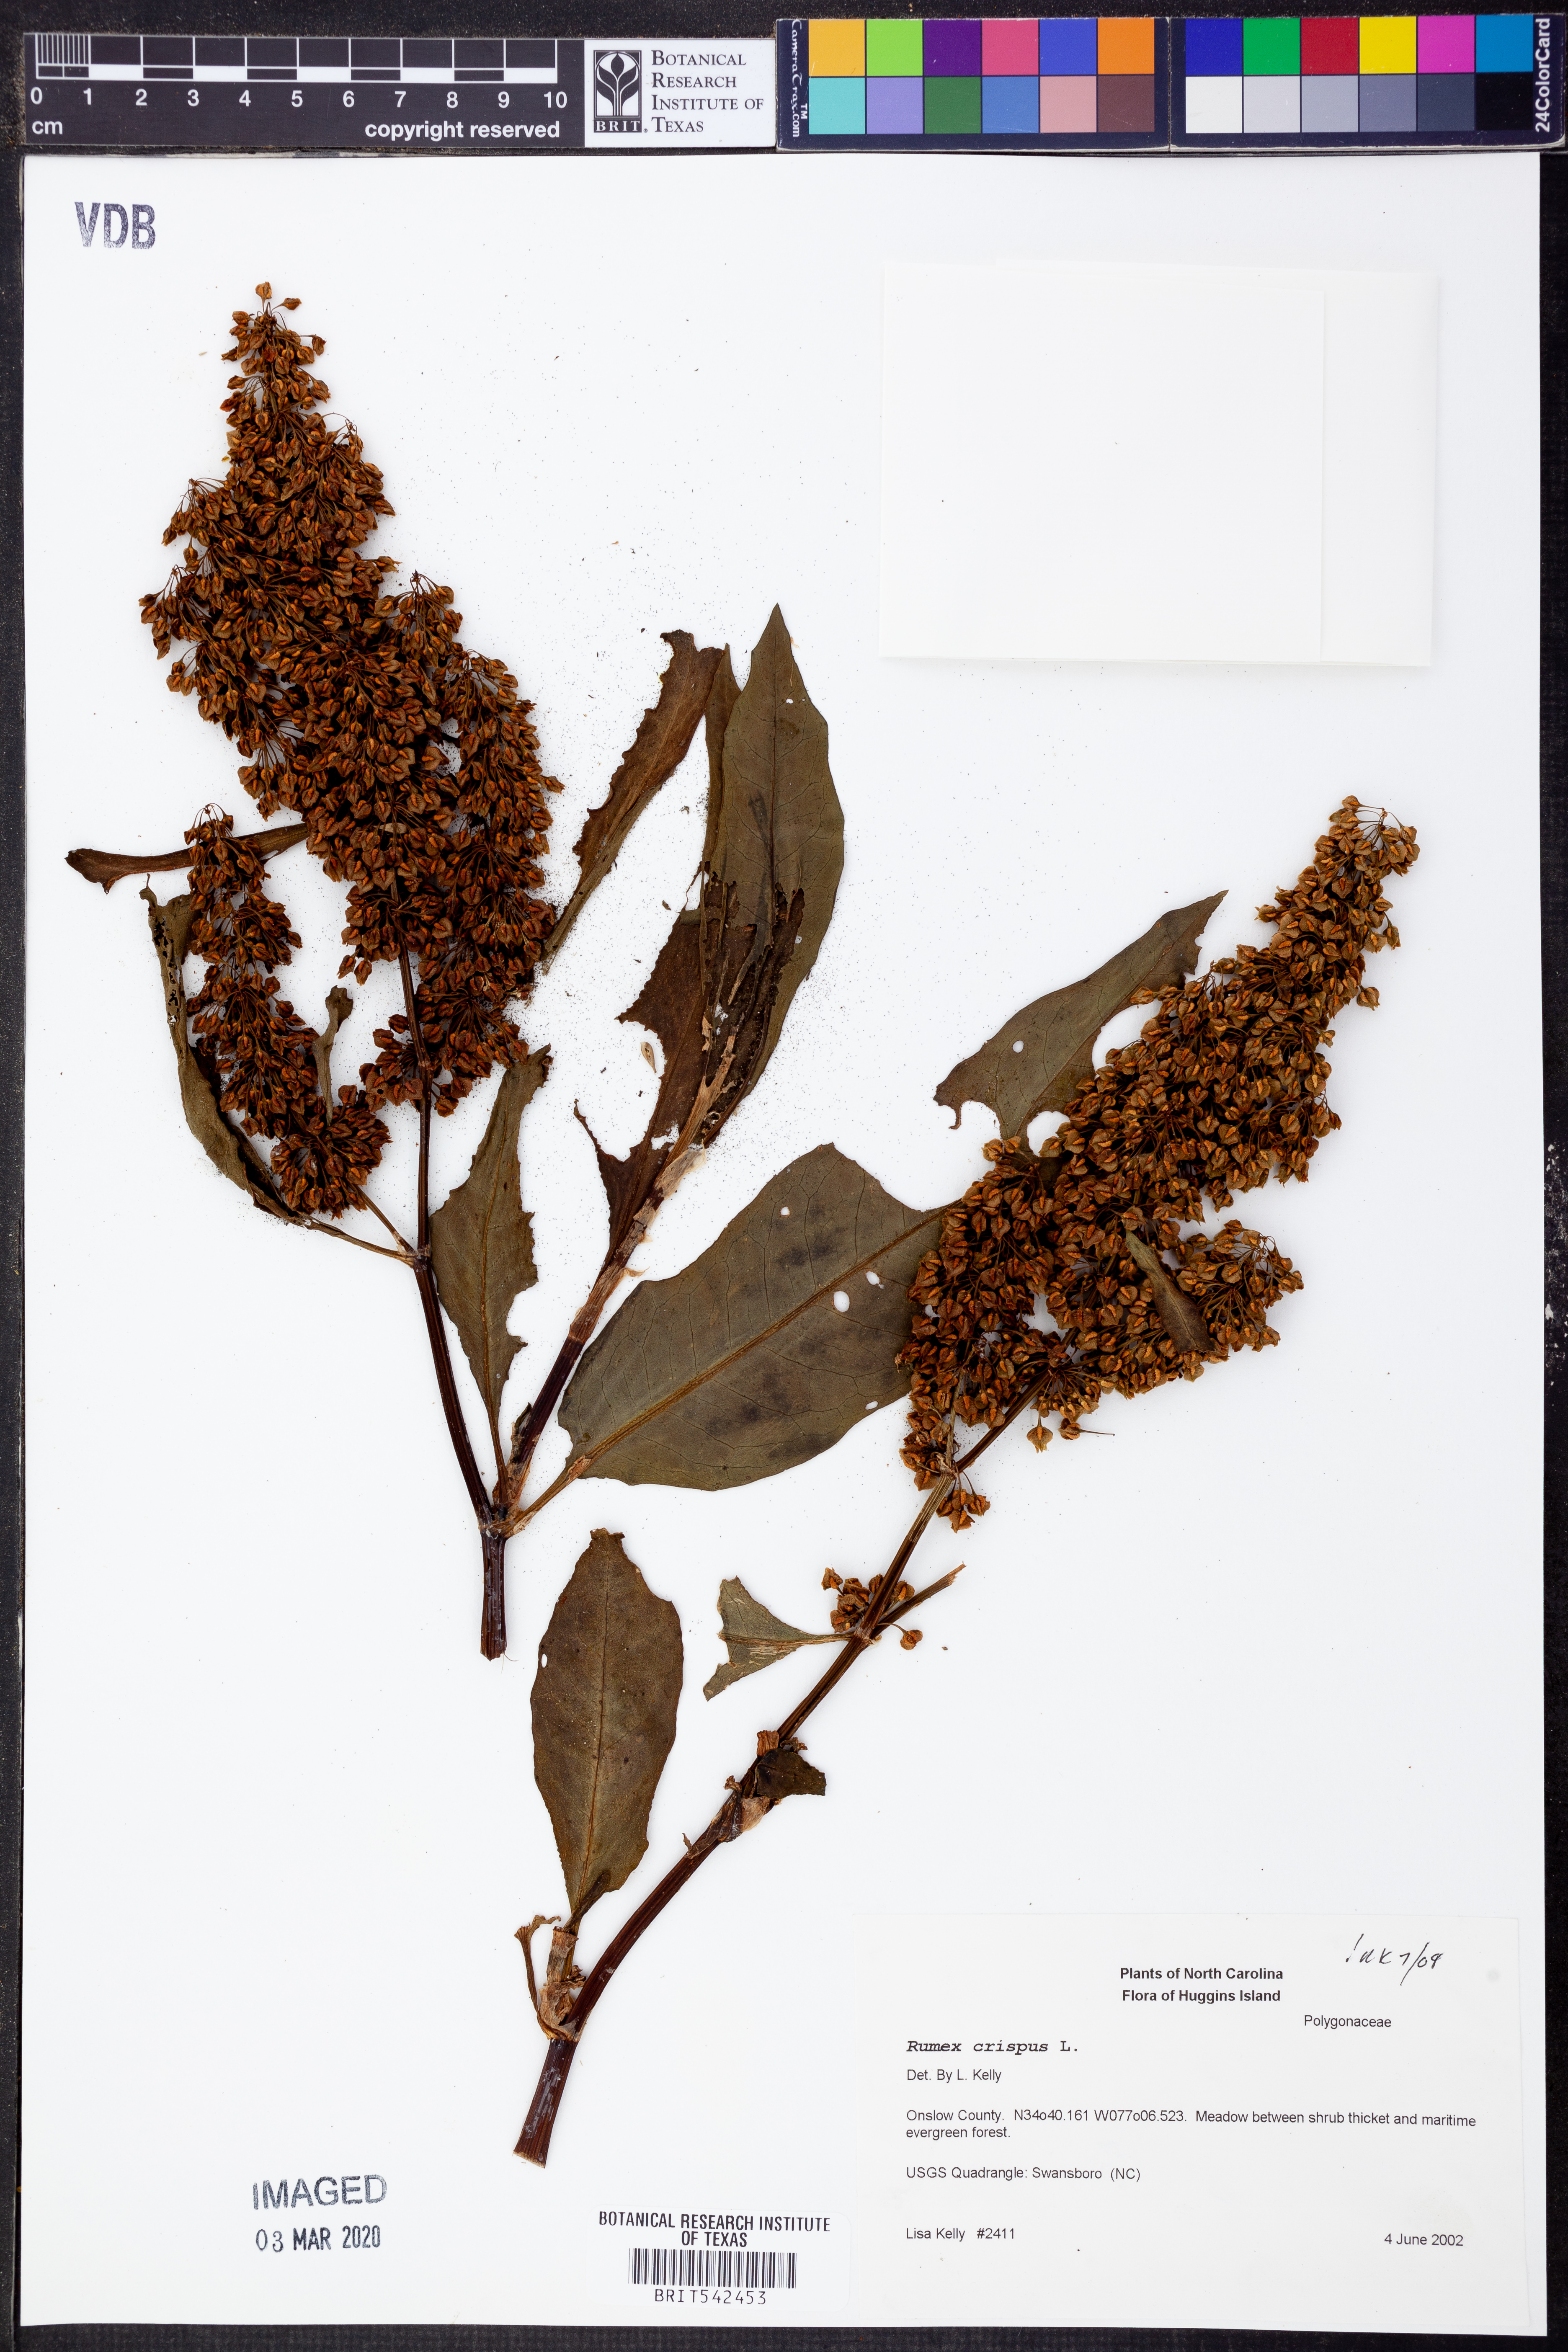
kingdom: Plantae
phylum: Tracheophyta
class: Magnoliopsida
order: Caryophyllales
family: Polygonaceae
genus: Rumex
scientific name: Rumex crispus
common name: Curled dock
